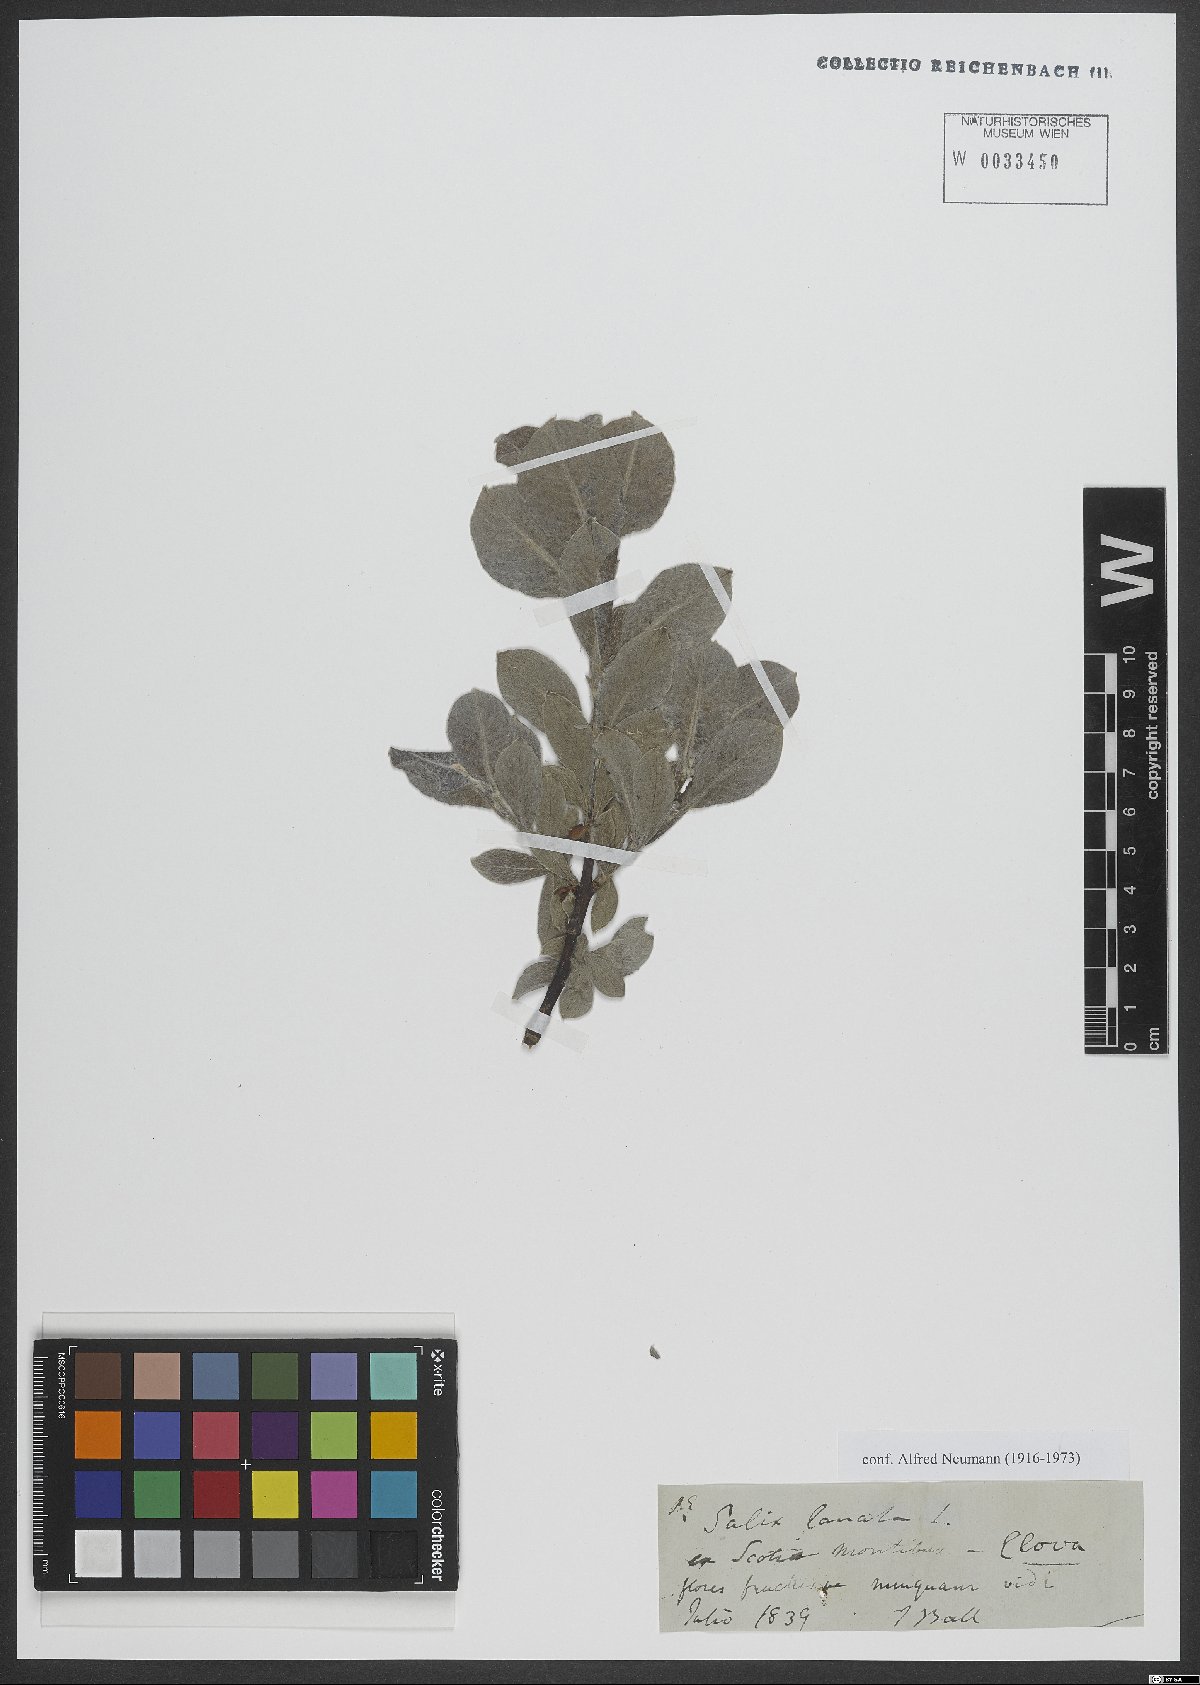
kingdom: Plantae
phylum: Tracheophyta
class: Magnoliopsida
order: Malpighiales
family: Salicaceae
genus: Salix
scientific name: Salix lanata
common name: Woolly willow
